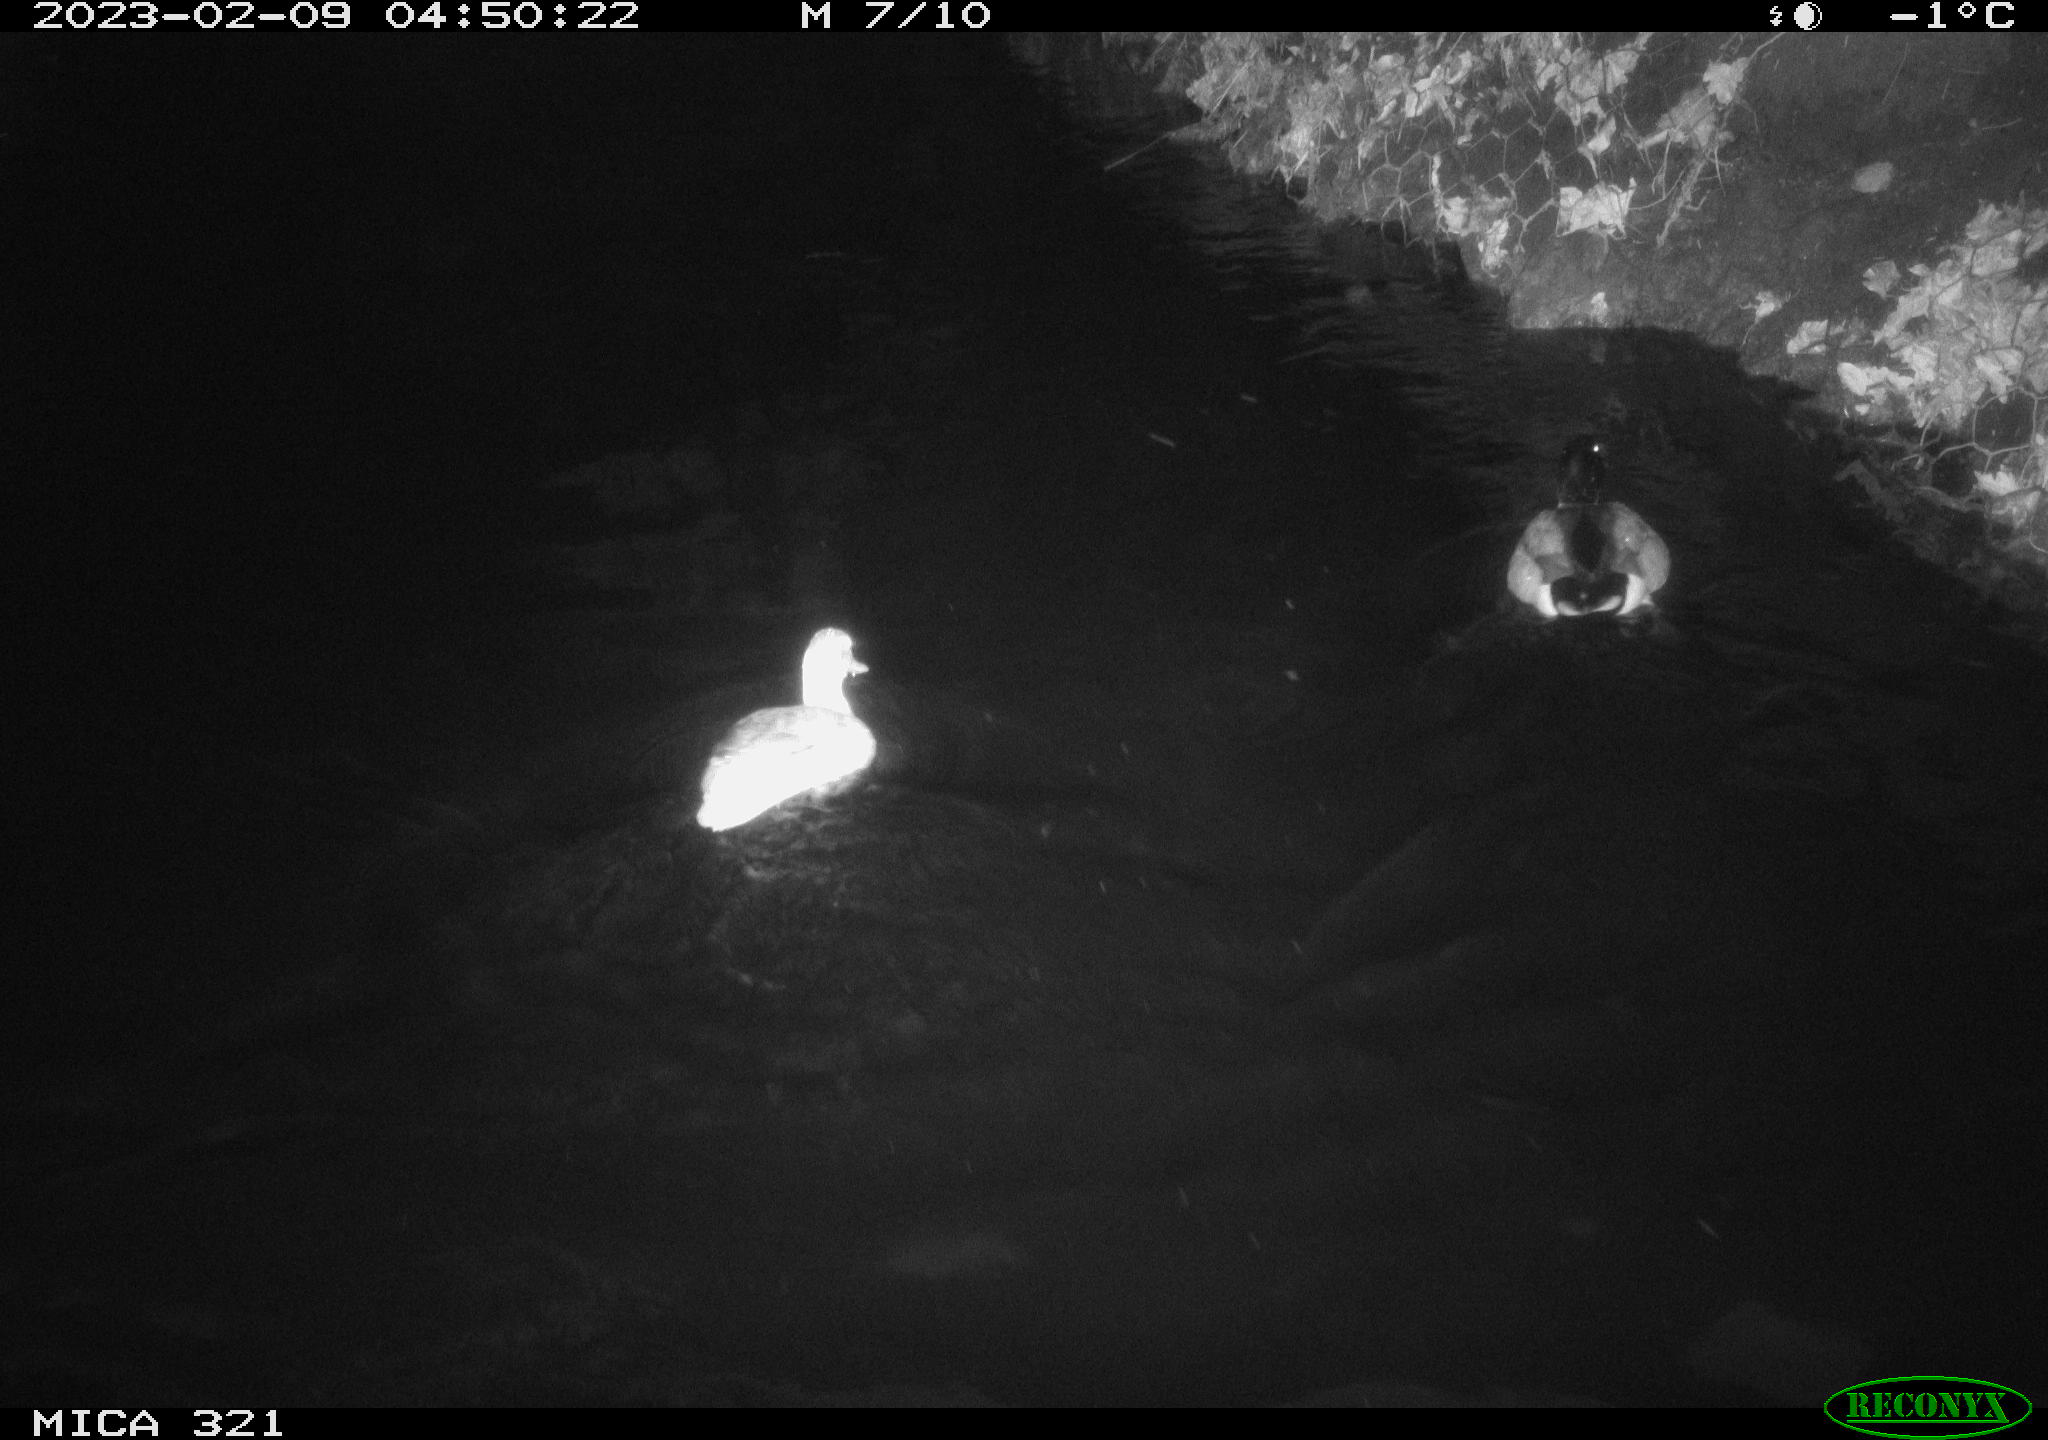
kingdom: Animalia
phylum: Chordata
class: Aves
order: Anseriformes
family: Anatidae
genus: Anas
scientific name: Anas
